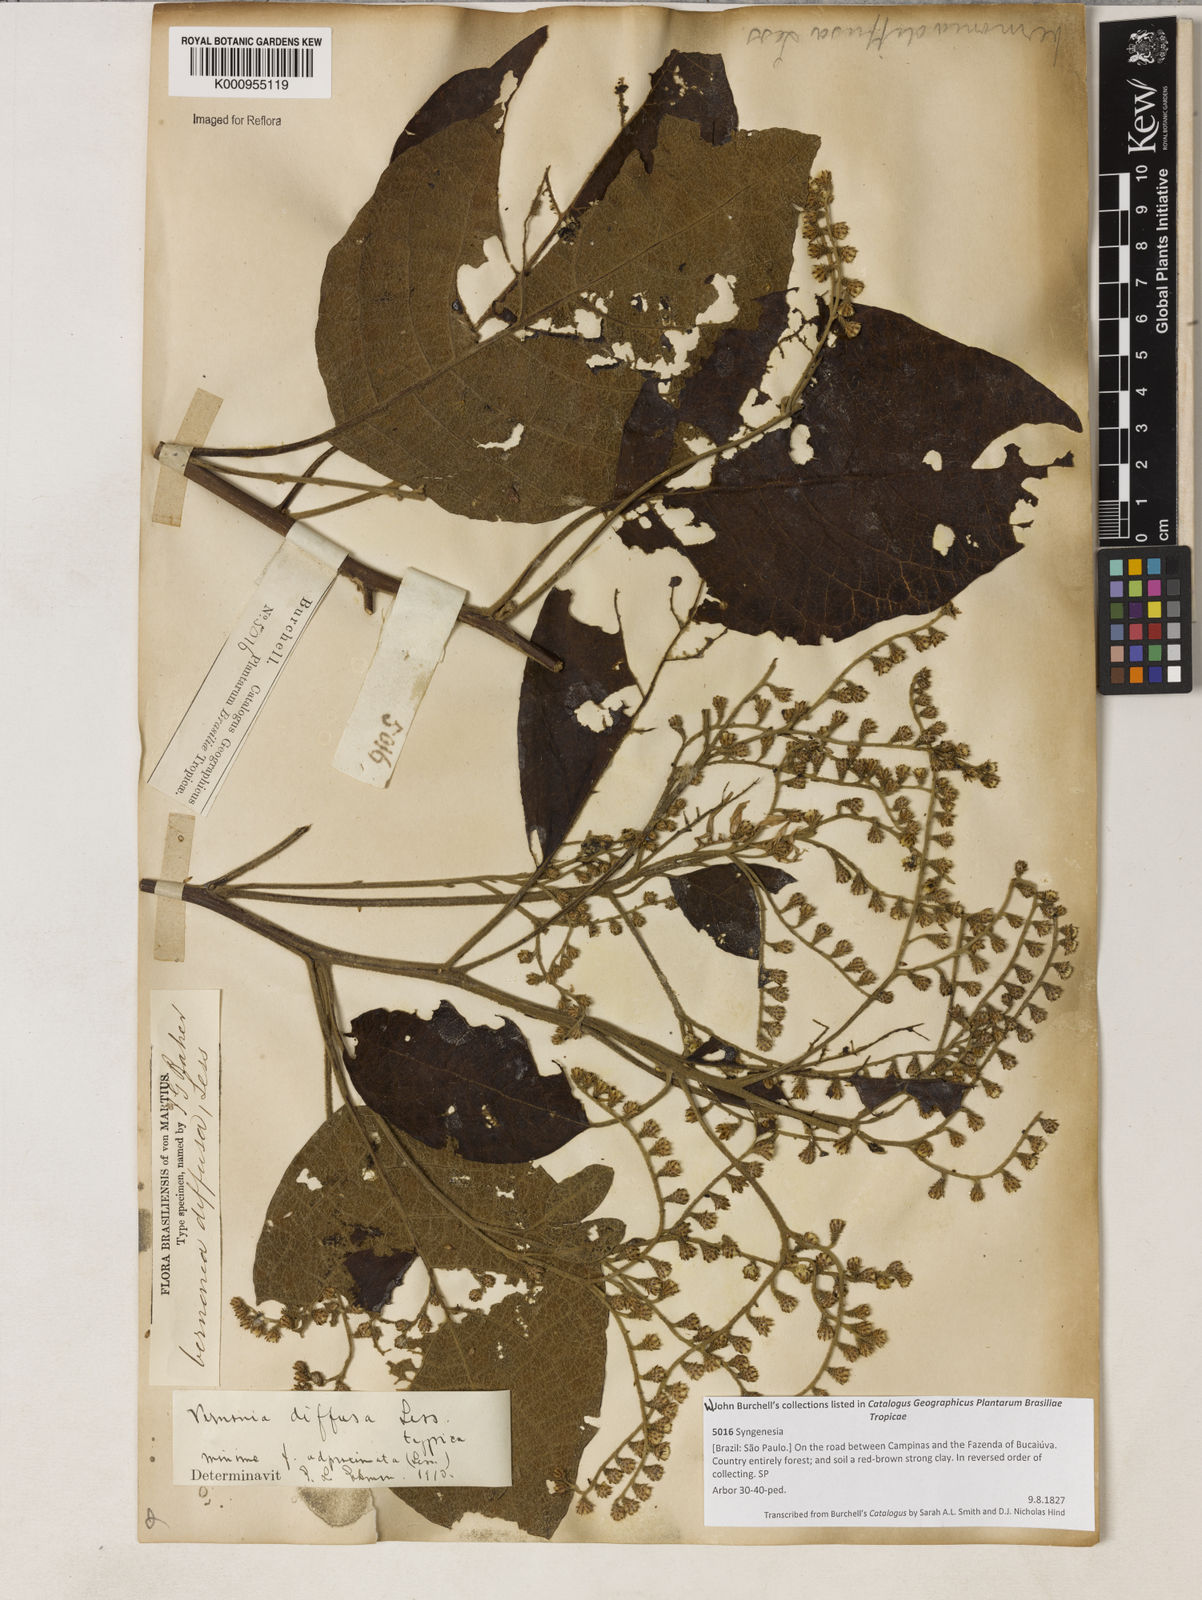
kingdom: Plantae
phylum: Tracheophyta
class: Magnoliopsida
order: Asterales
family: Asteraceae
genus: Vernonanthura
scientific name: Vernonanthura divaricata
